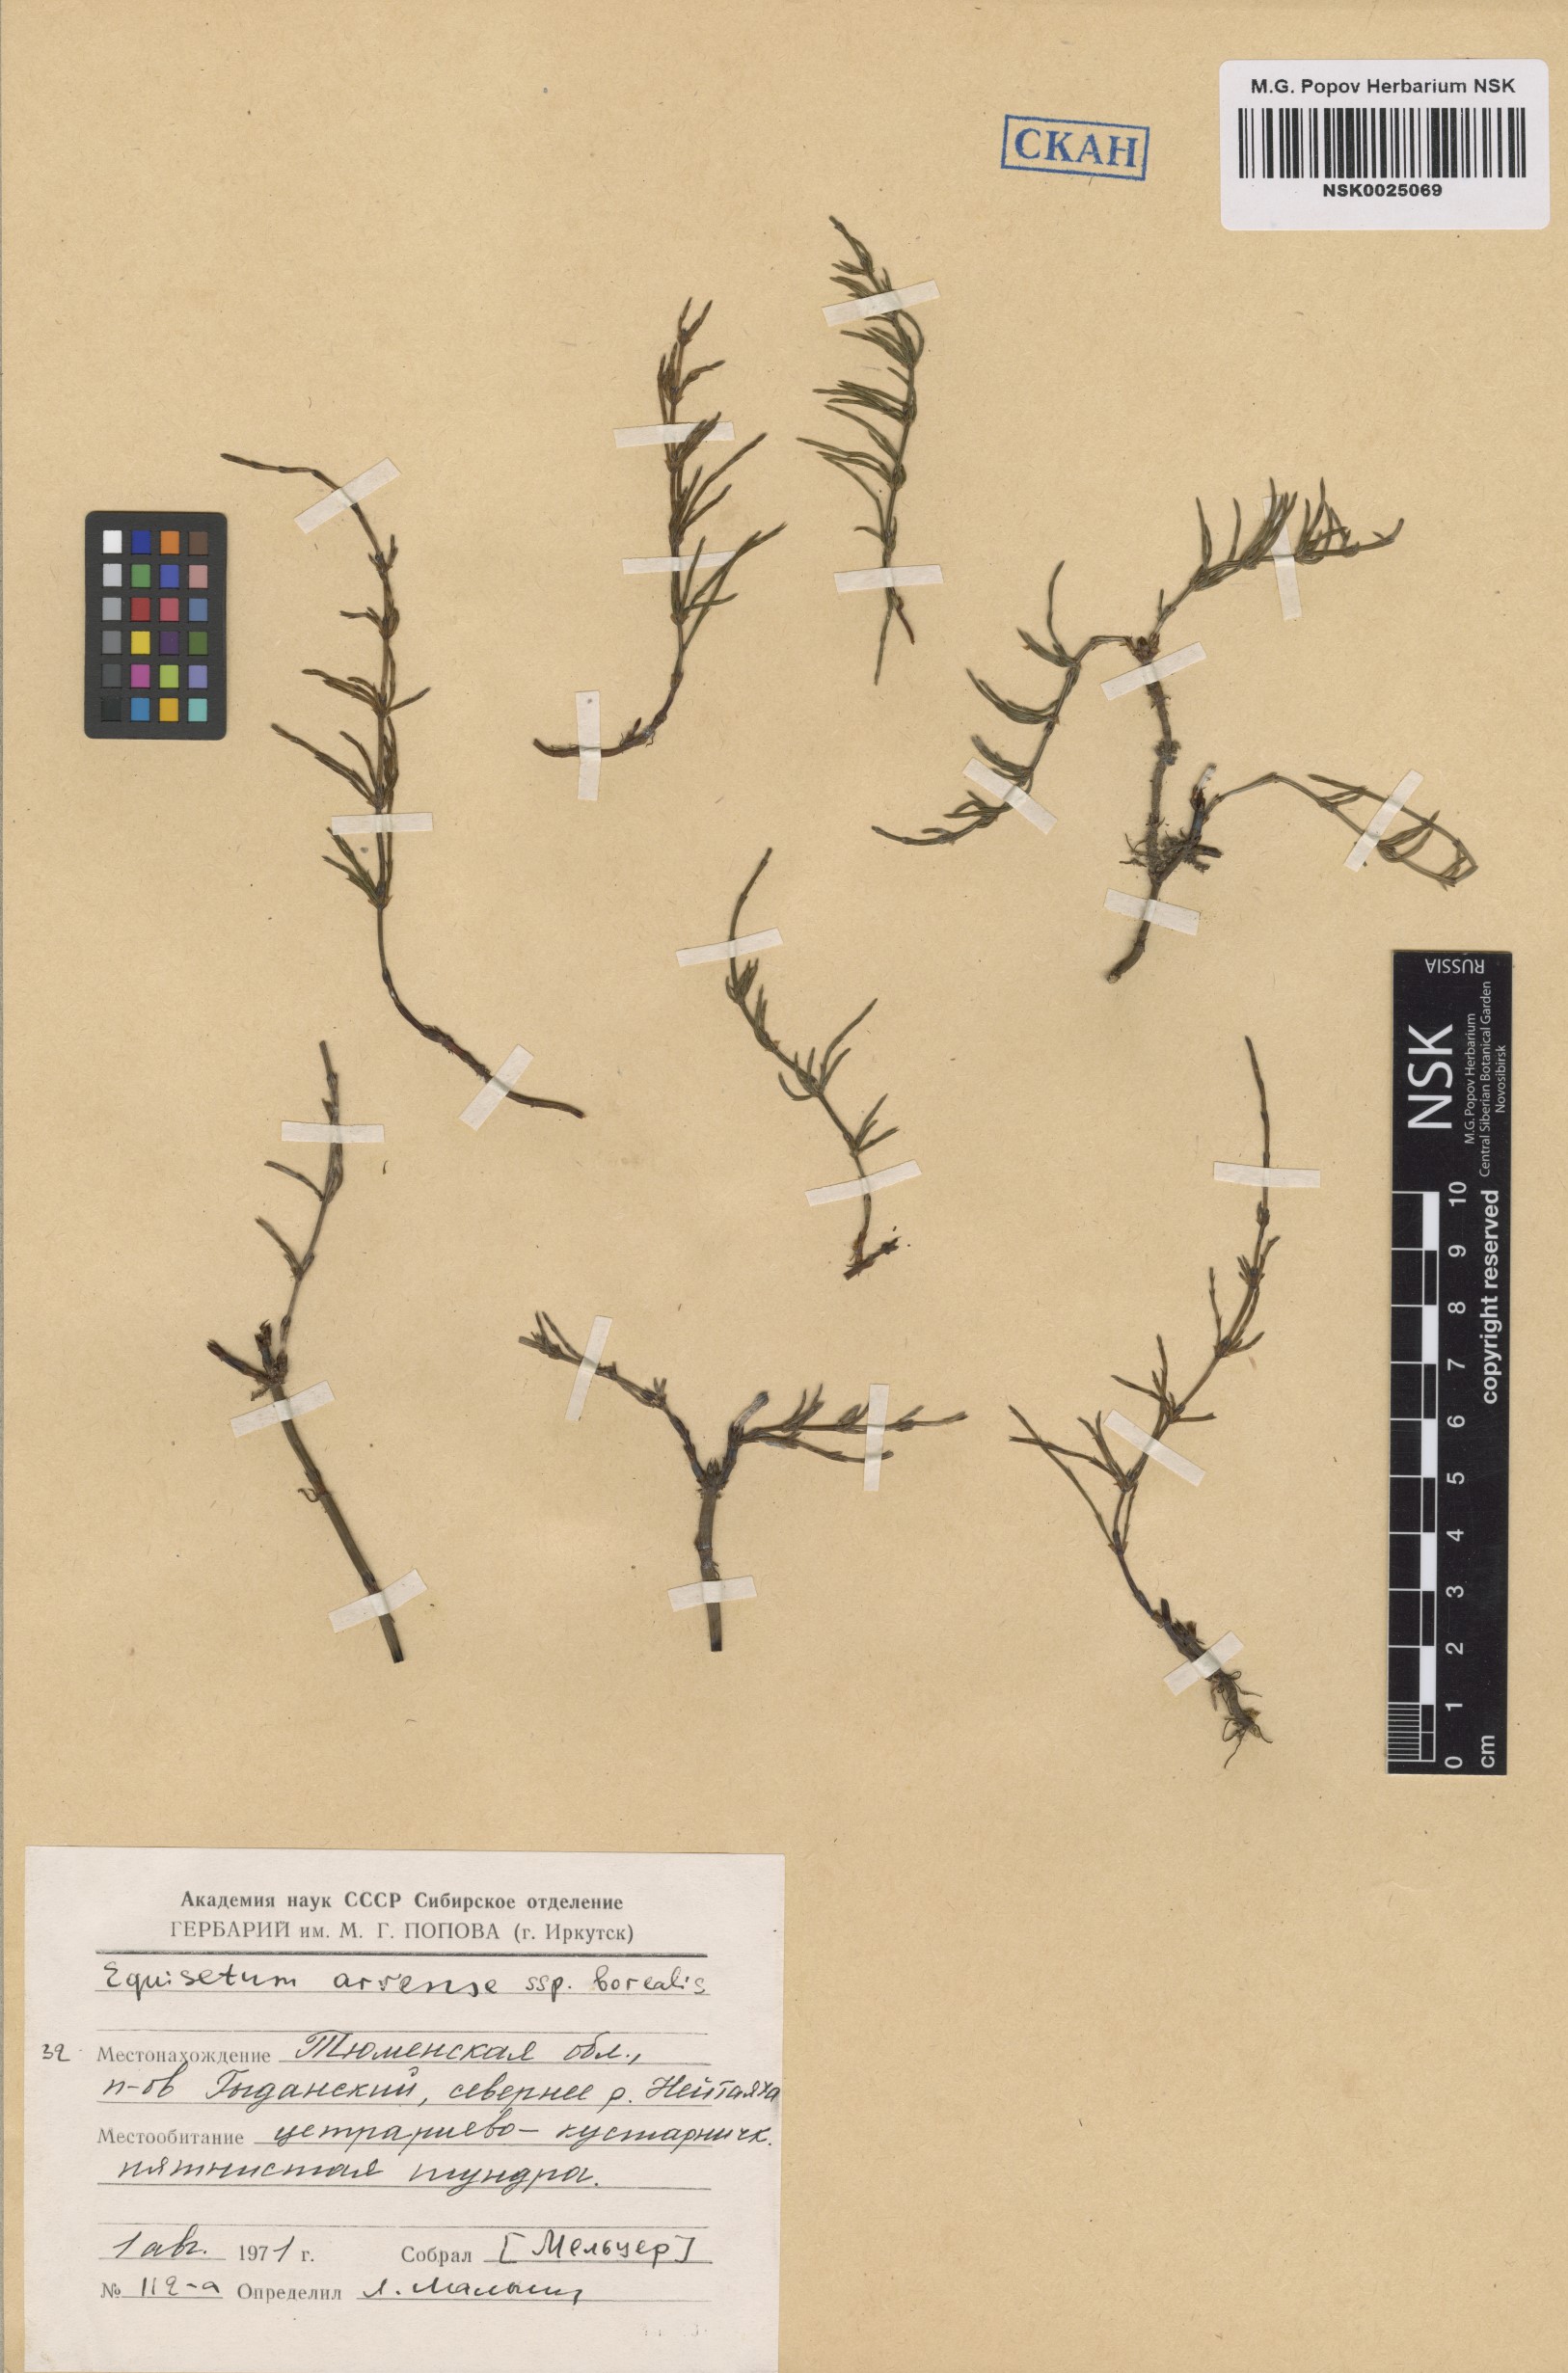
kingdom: Plantae
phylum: Tracheophyta
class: Polypodiopsida
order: Equisetales
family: Equisetaceae
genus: Equisetum
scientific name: Equisetum arvense
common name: Field horsetail
